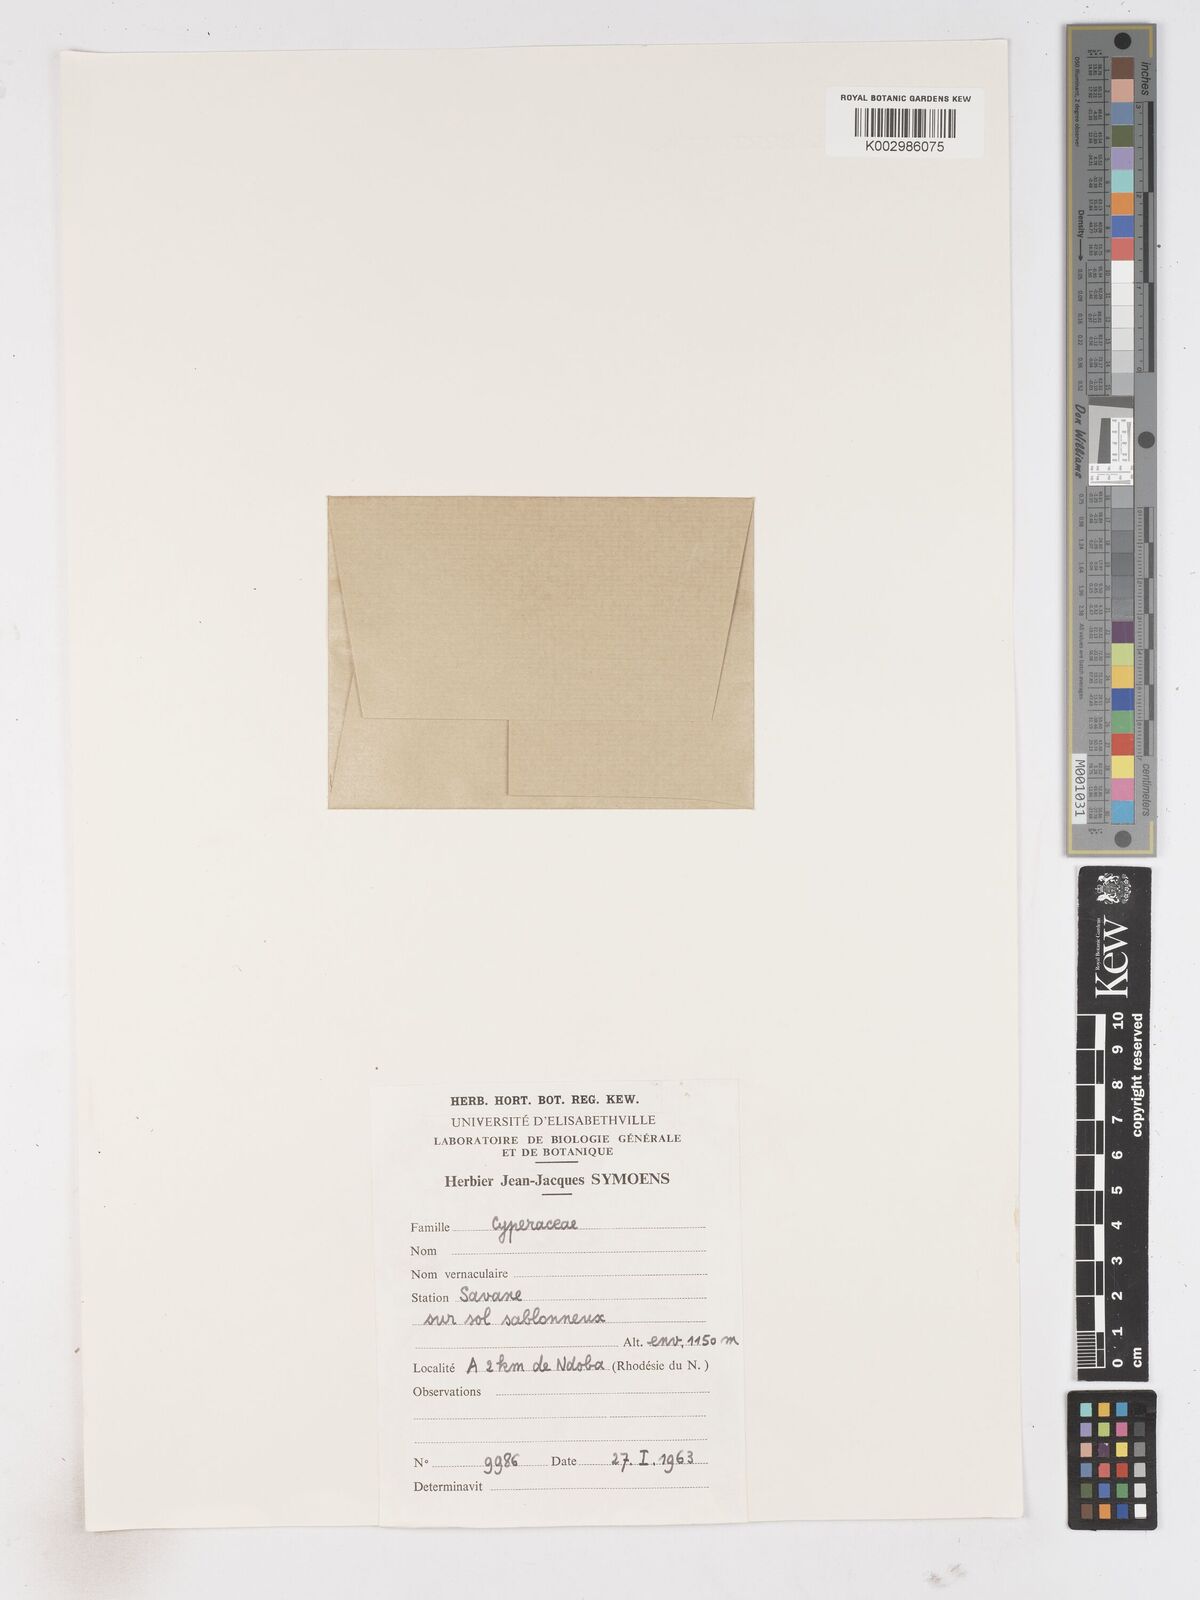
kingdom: Plantae
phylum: Tracheophyta
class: Liliopsida
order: Poales
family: Cyperaceae
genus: Fimbristylis
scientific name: Fimbristylis
